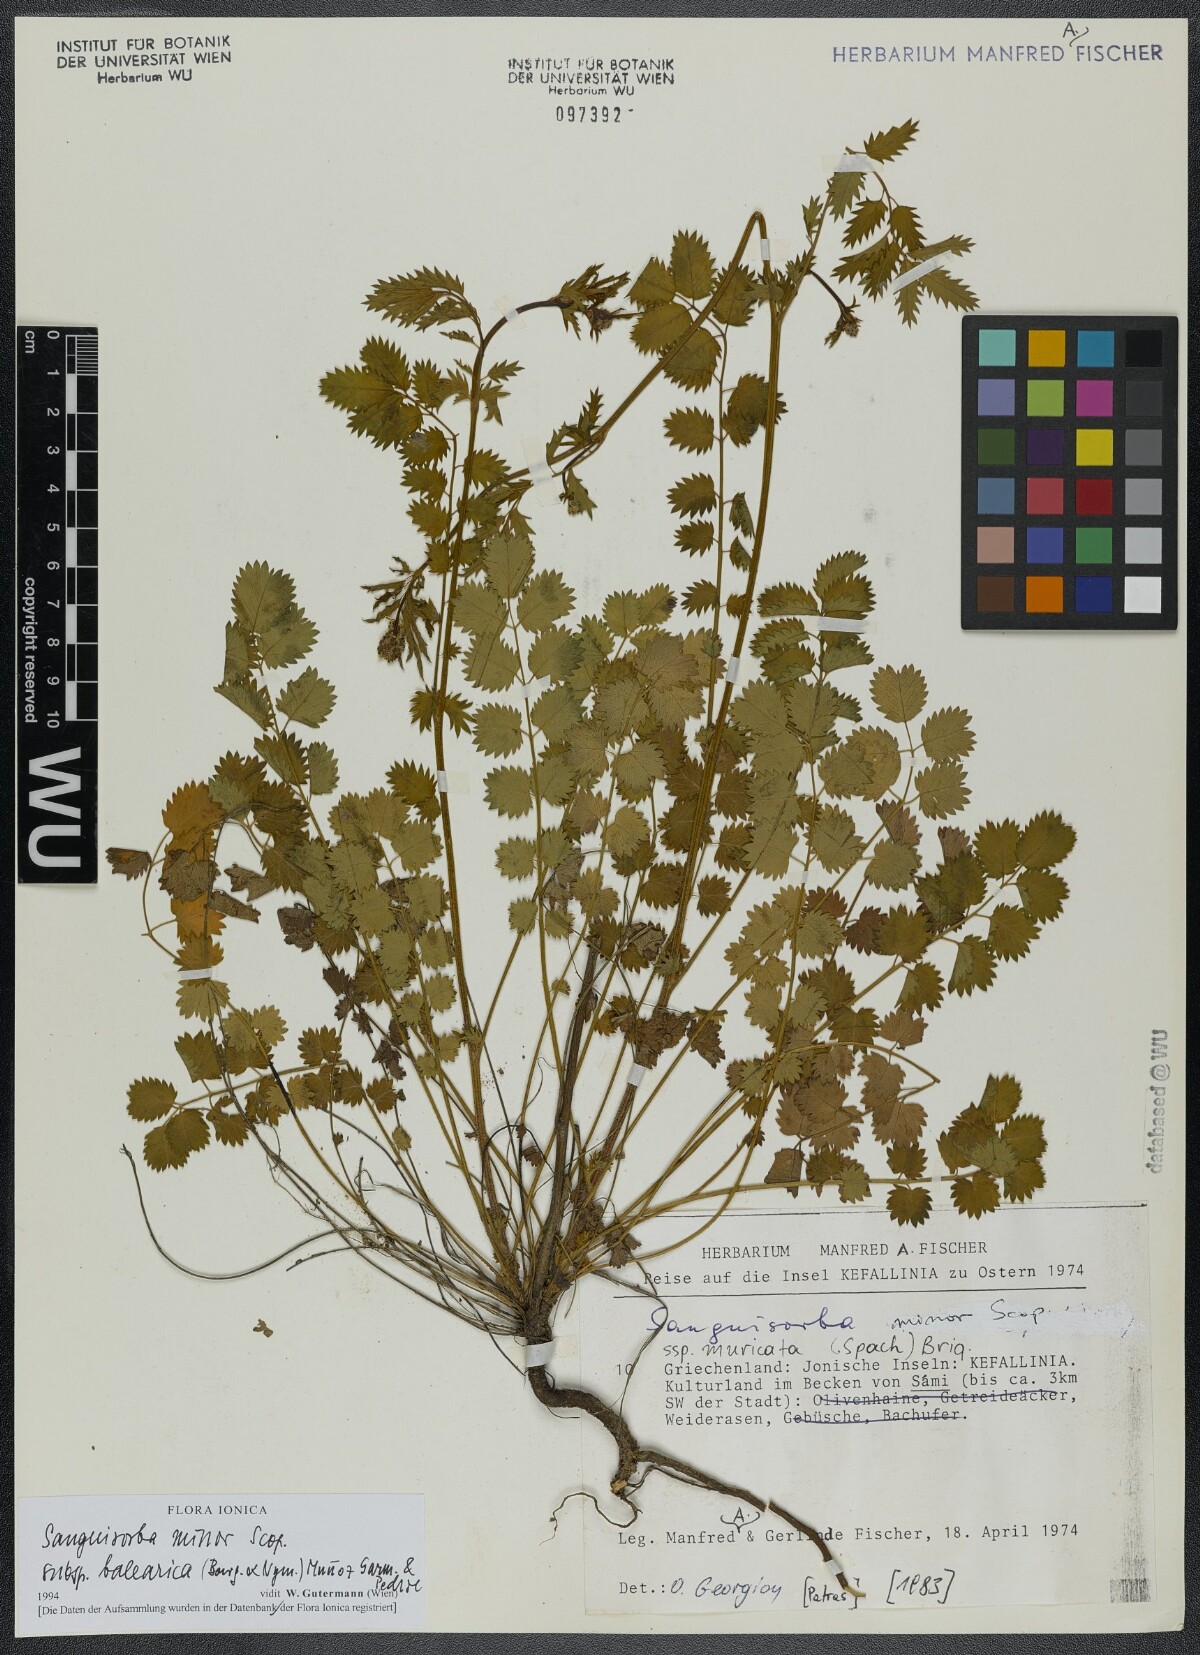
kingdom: Plantae
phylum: Tracheophyta
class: Magnoliopsida
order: Rosales
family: Rosaceae
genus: Poterium
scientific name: Poterium sanguisorba
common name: Salad burnet
